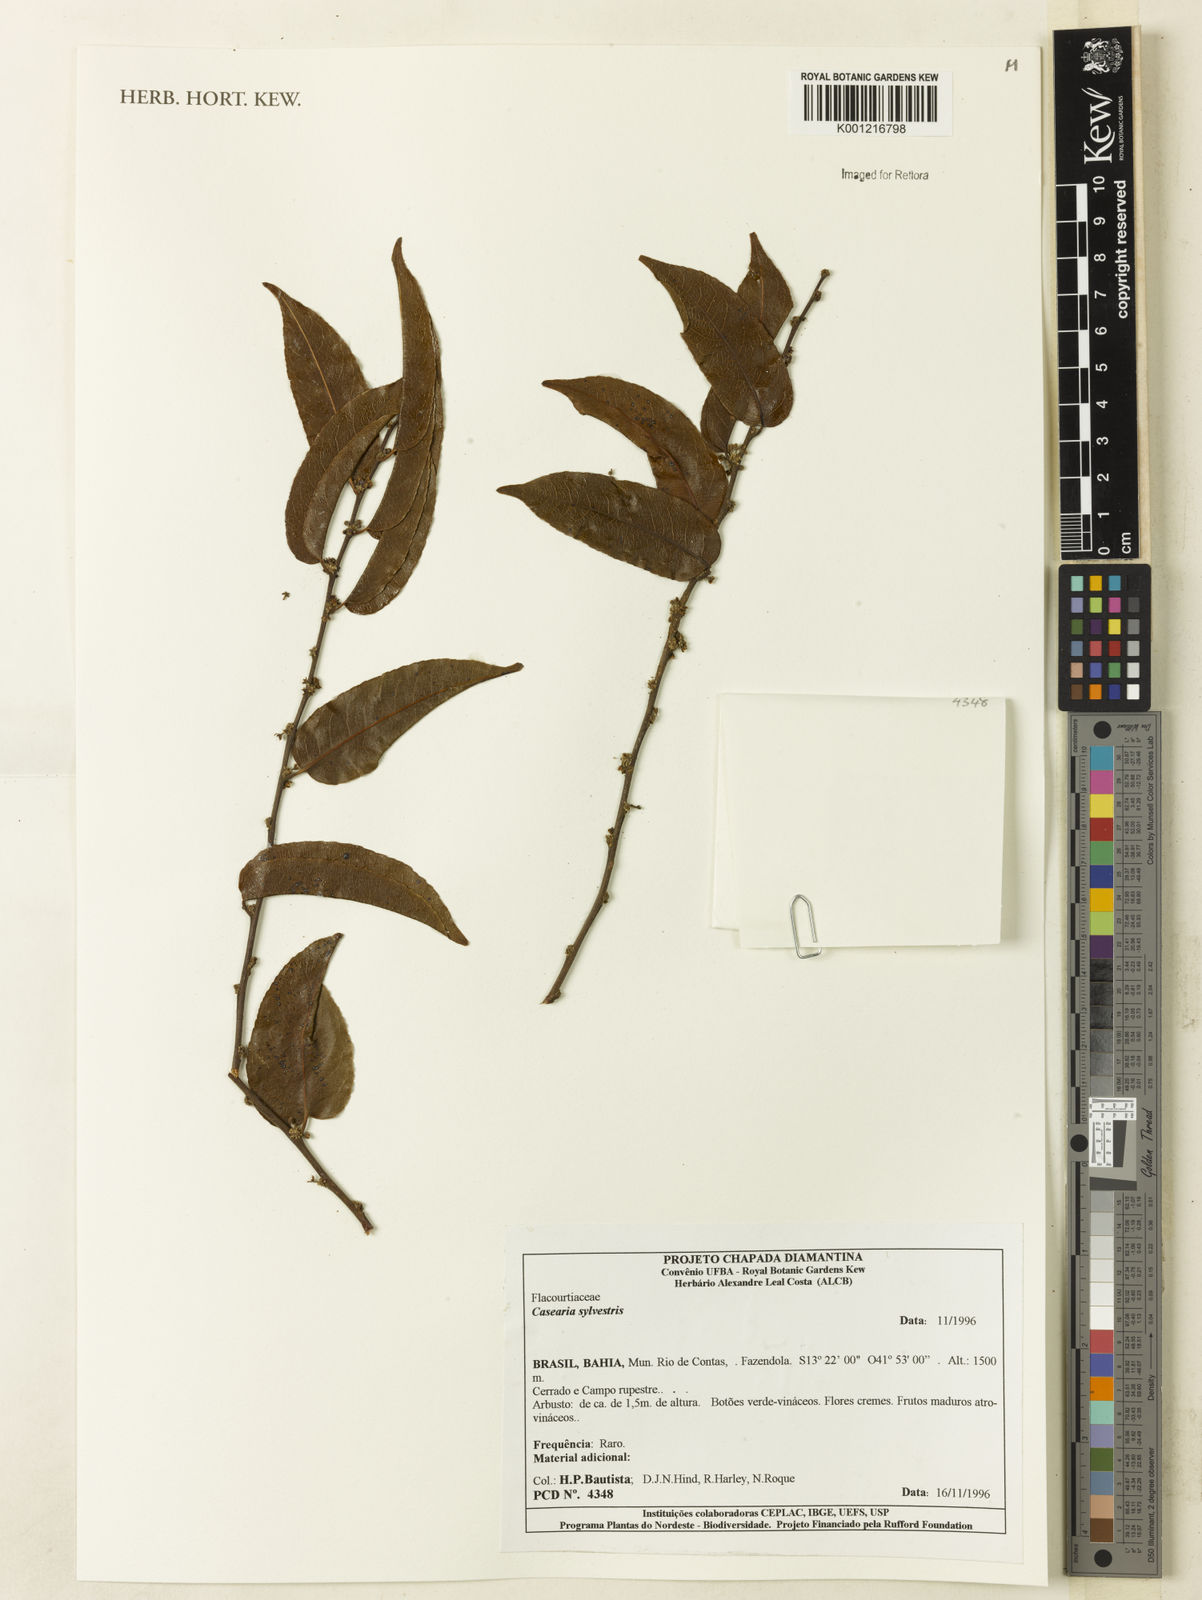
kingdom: Plantae
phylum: Tracheophyta
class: Magnoliopsida
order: Malpighiales
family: Salicaceae
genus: Casearia
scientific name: Casearia sylvestris
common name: Wild sage
